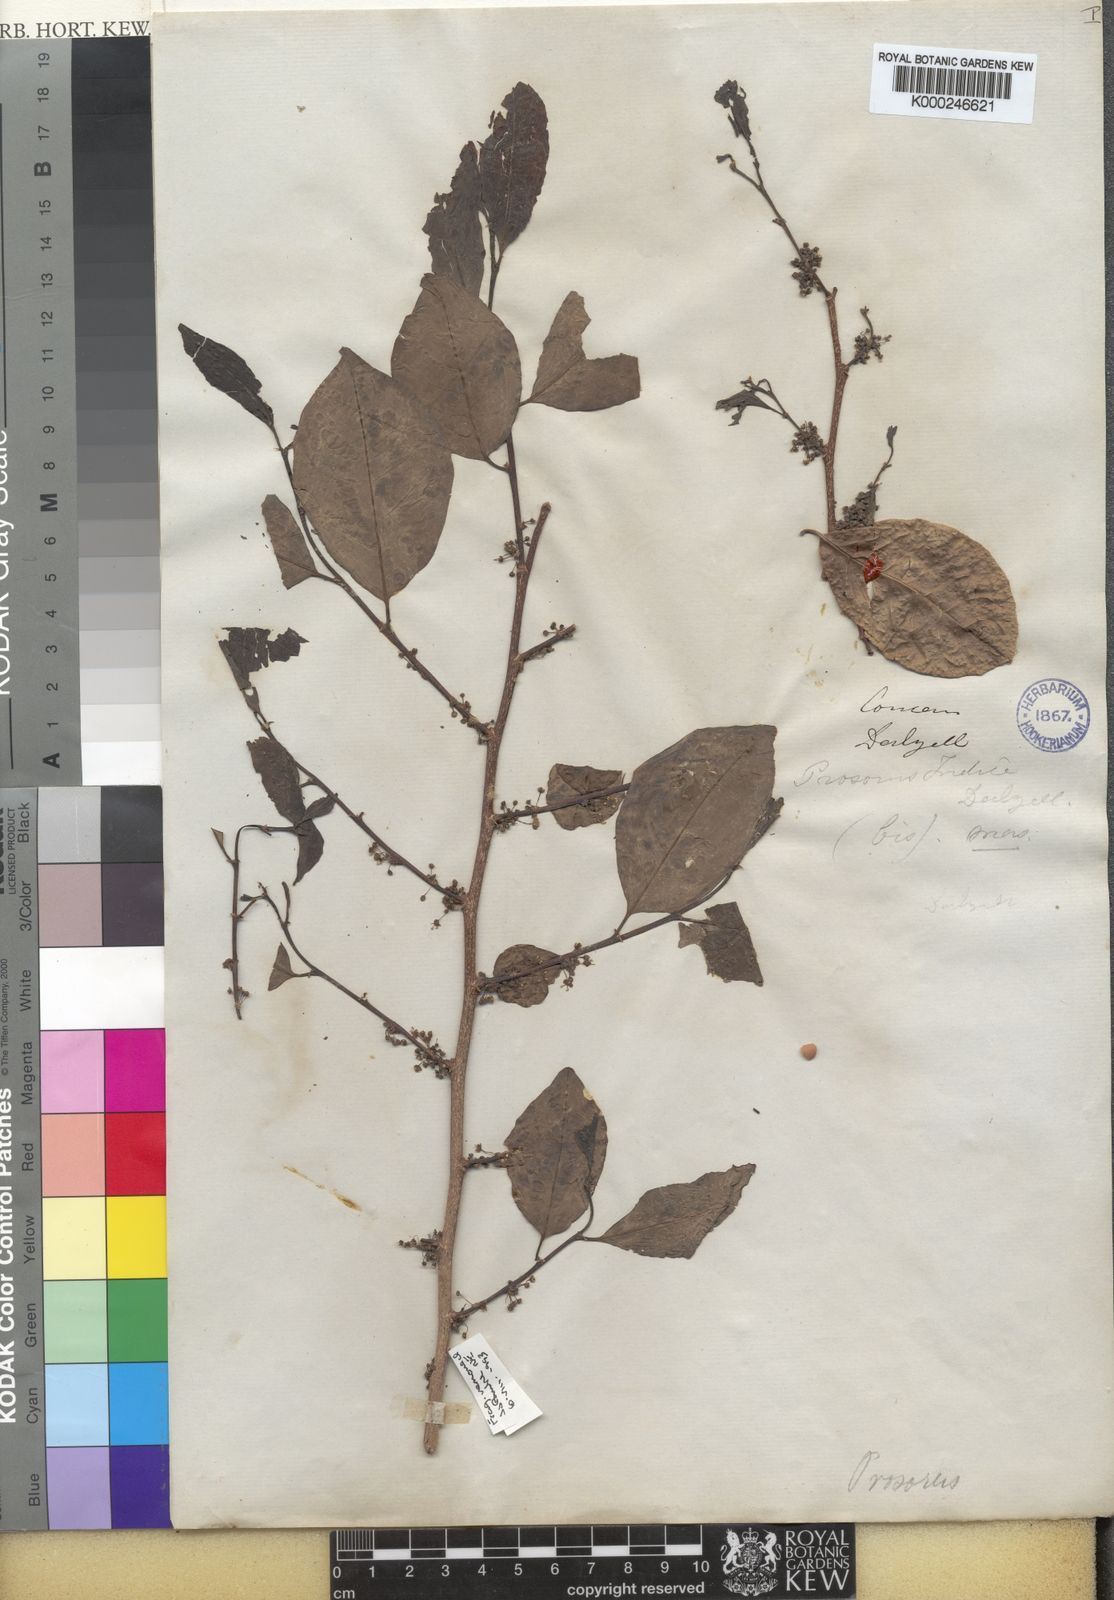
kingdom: Plantae
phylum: Tracheophyta
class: Magnoliopsida
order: Malpighiales
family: Phyllanthaceae
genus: Margaritaria
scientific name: Margaritaria indica
